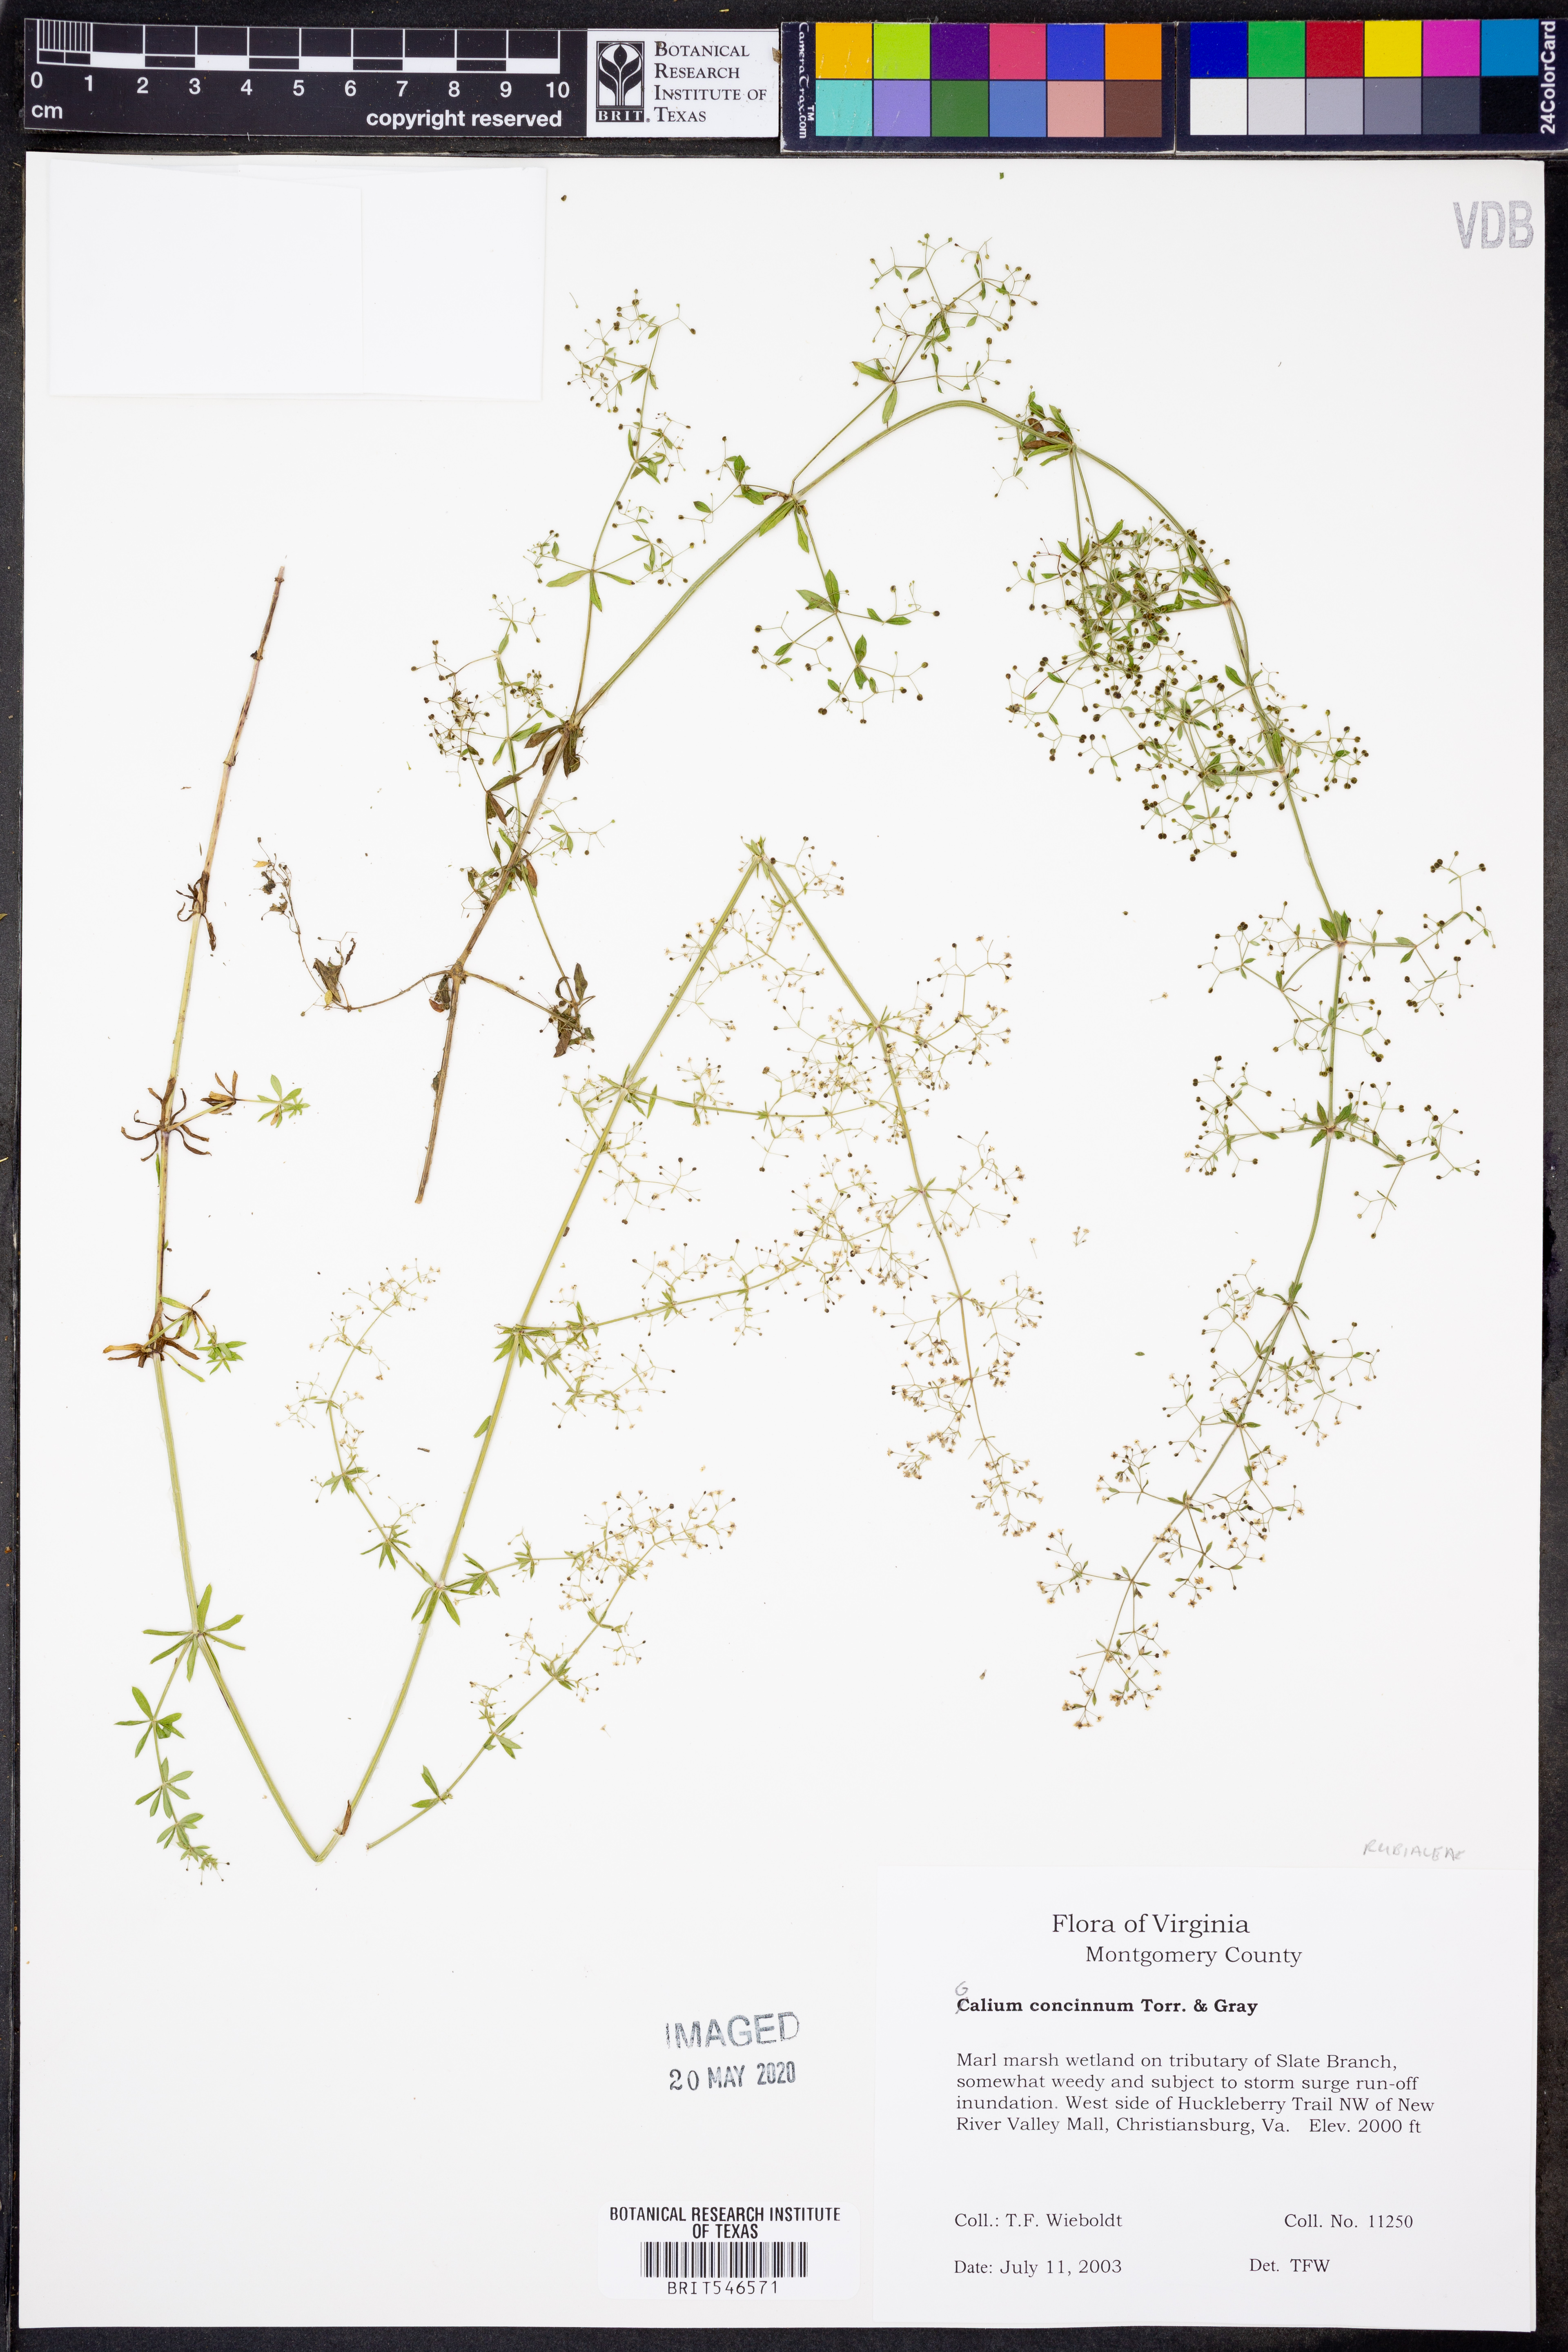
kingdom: Plantae
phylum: Tracheophyta
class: Magnoliopsida
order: Gentianales
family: Rubiaceae
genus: Galium
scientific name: Galium concinnum
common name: Shining bedstraw
